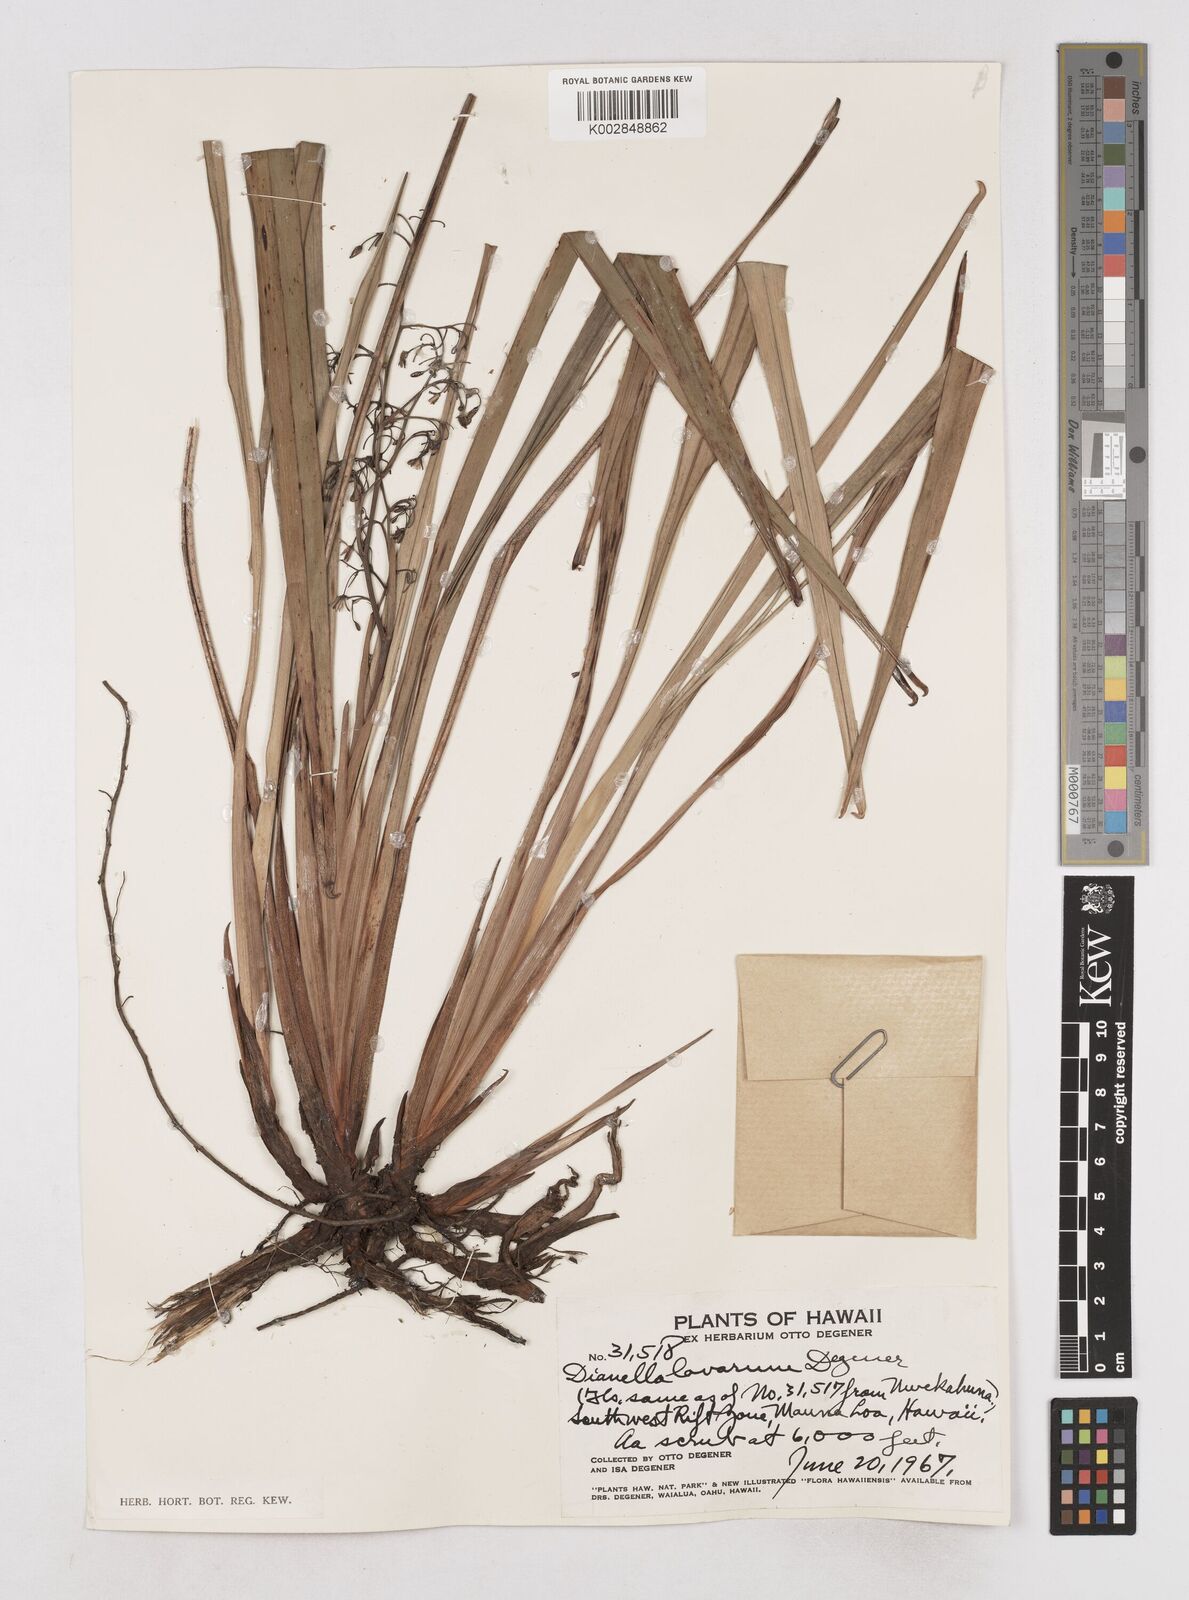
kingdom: Plantae
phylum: Tracheophyta
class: Liliopsida
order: Asparagales
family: Asphodelaceae
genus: Dianella
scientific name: Dianella sandwicensis
